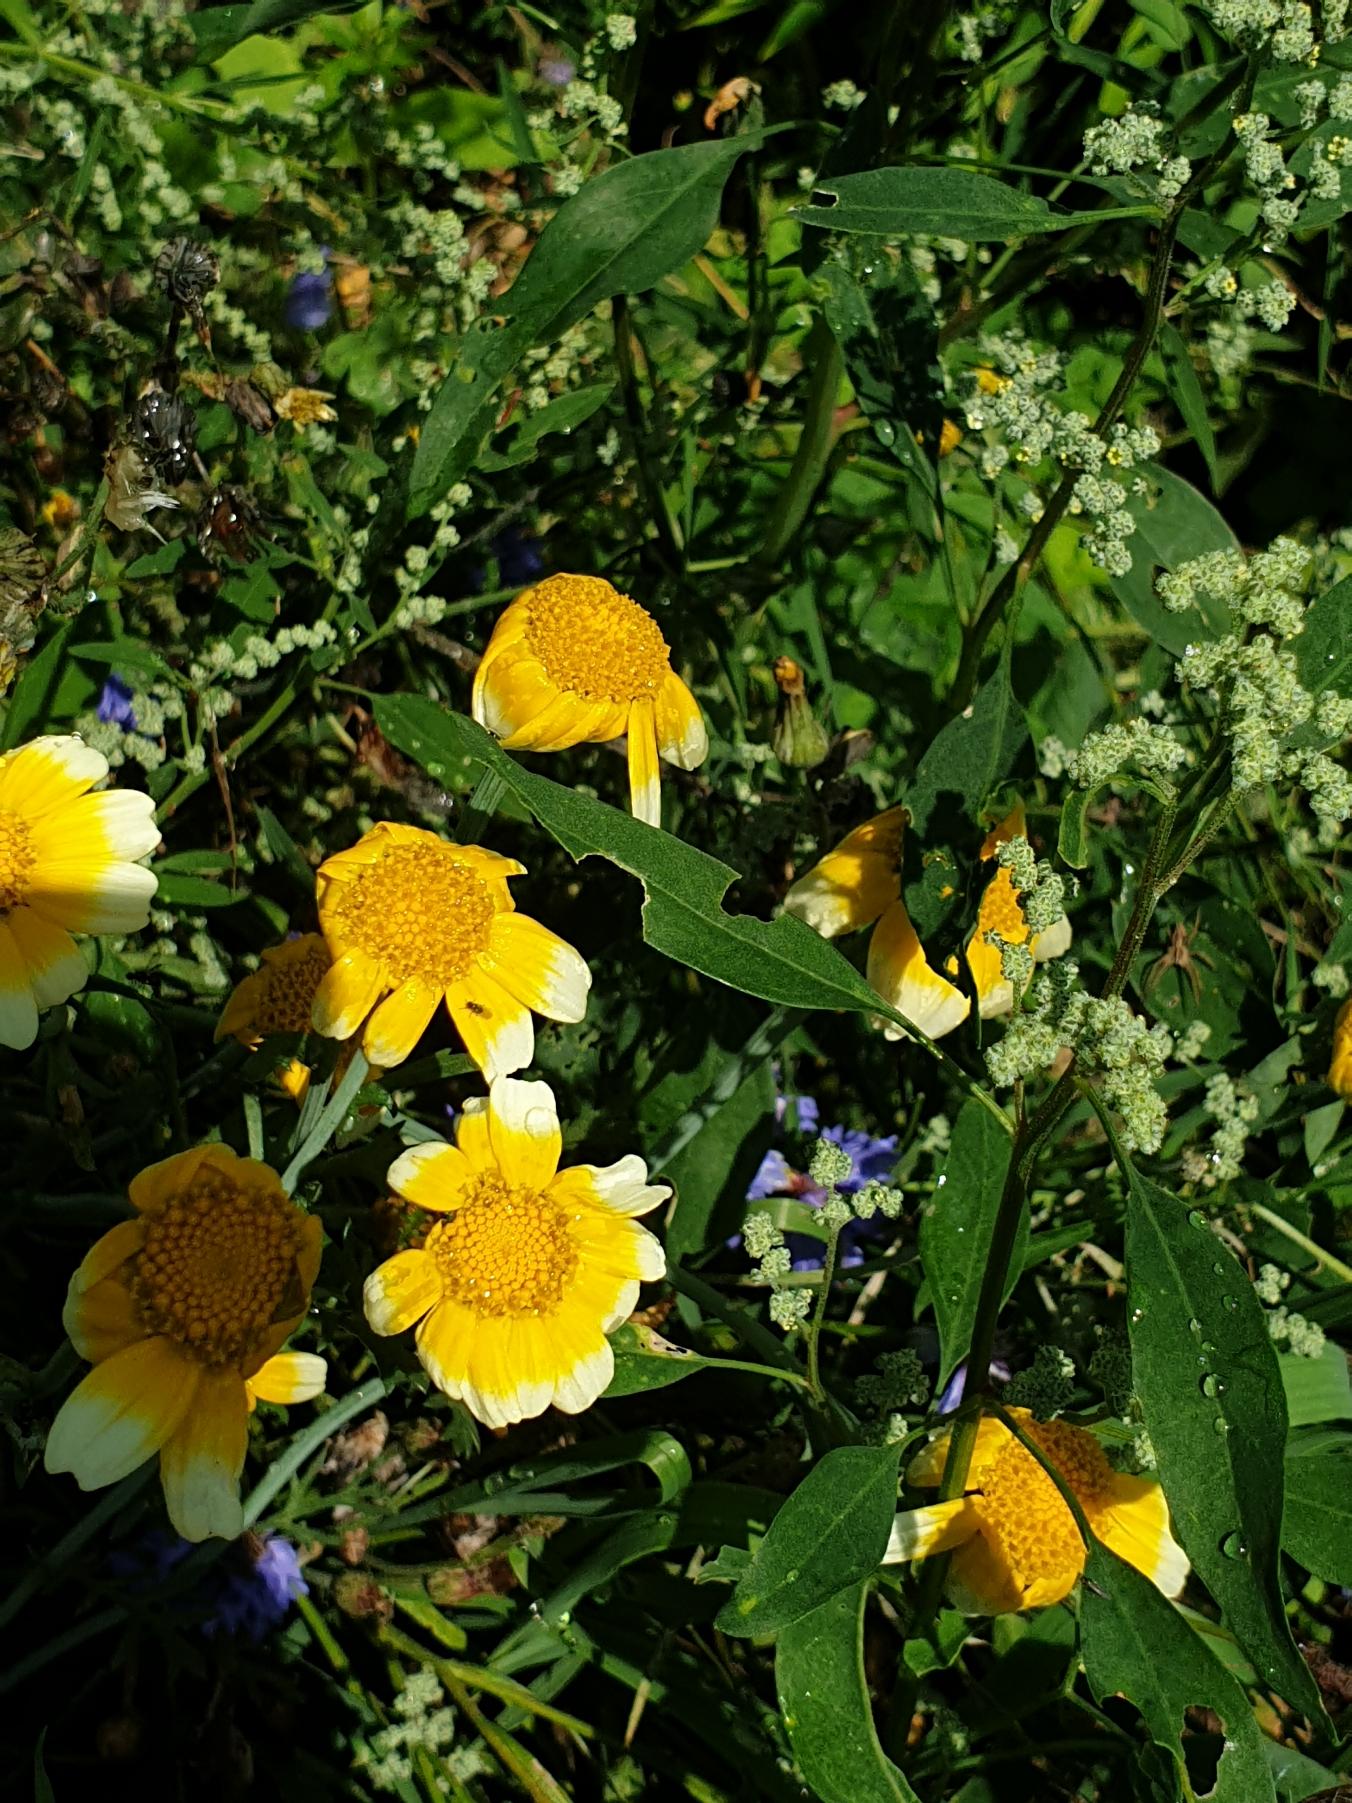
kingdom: Plantae
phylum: Tracheophyta
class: Magnoliopsida
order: Asterales
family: Asteraceae
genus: Glebionis
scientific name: Glebionis coronaria
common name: Kron-okseøje
